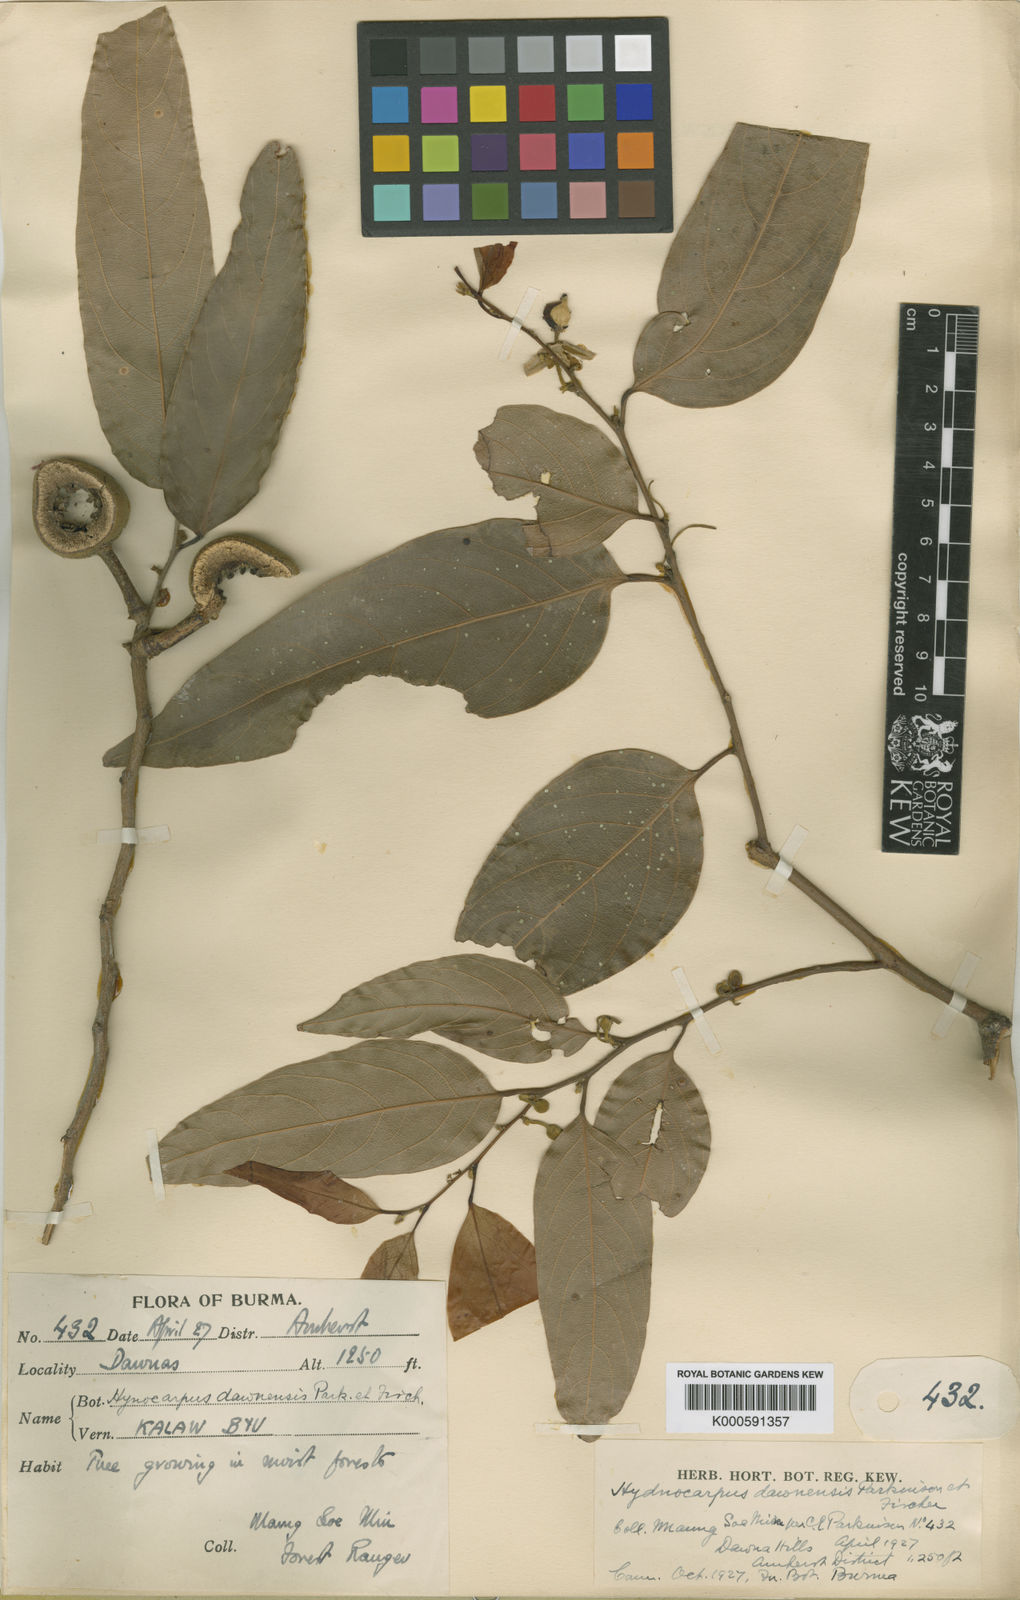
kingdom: Plantae
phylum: Tracheophyta
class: Magnoliopsida
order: Malpighiales
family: Achariaceae
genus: Hydnocarpus
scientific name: Hydnocarpus dawnensis
